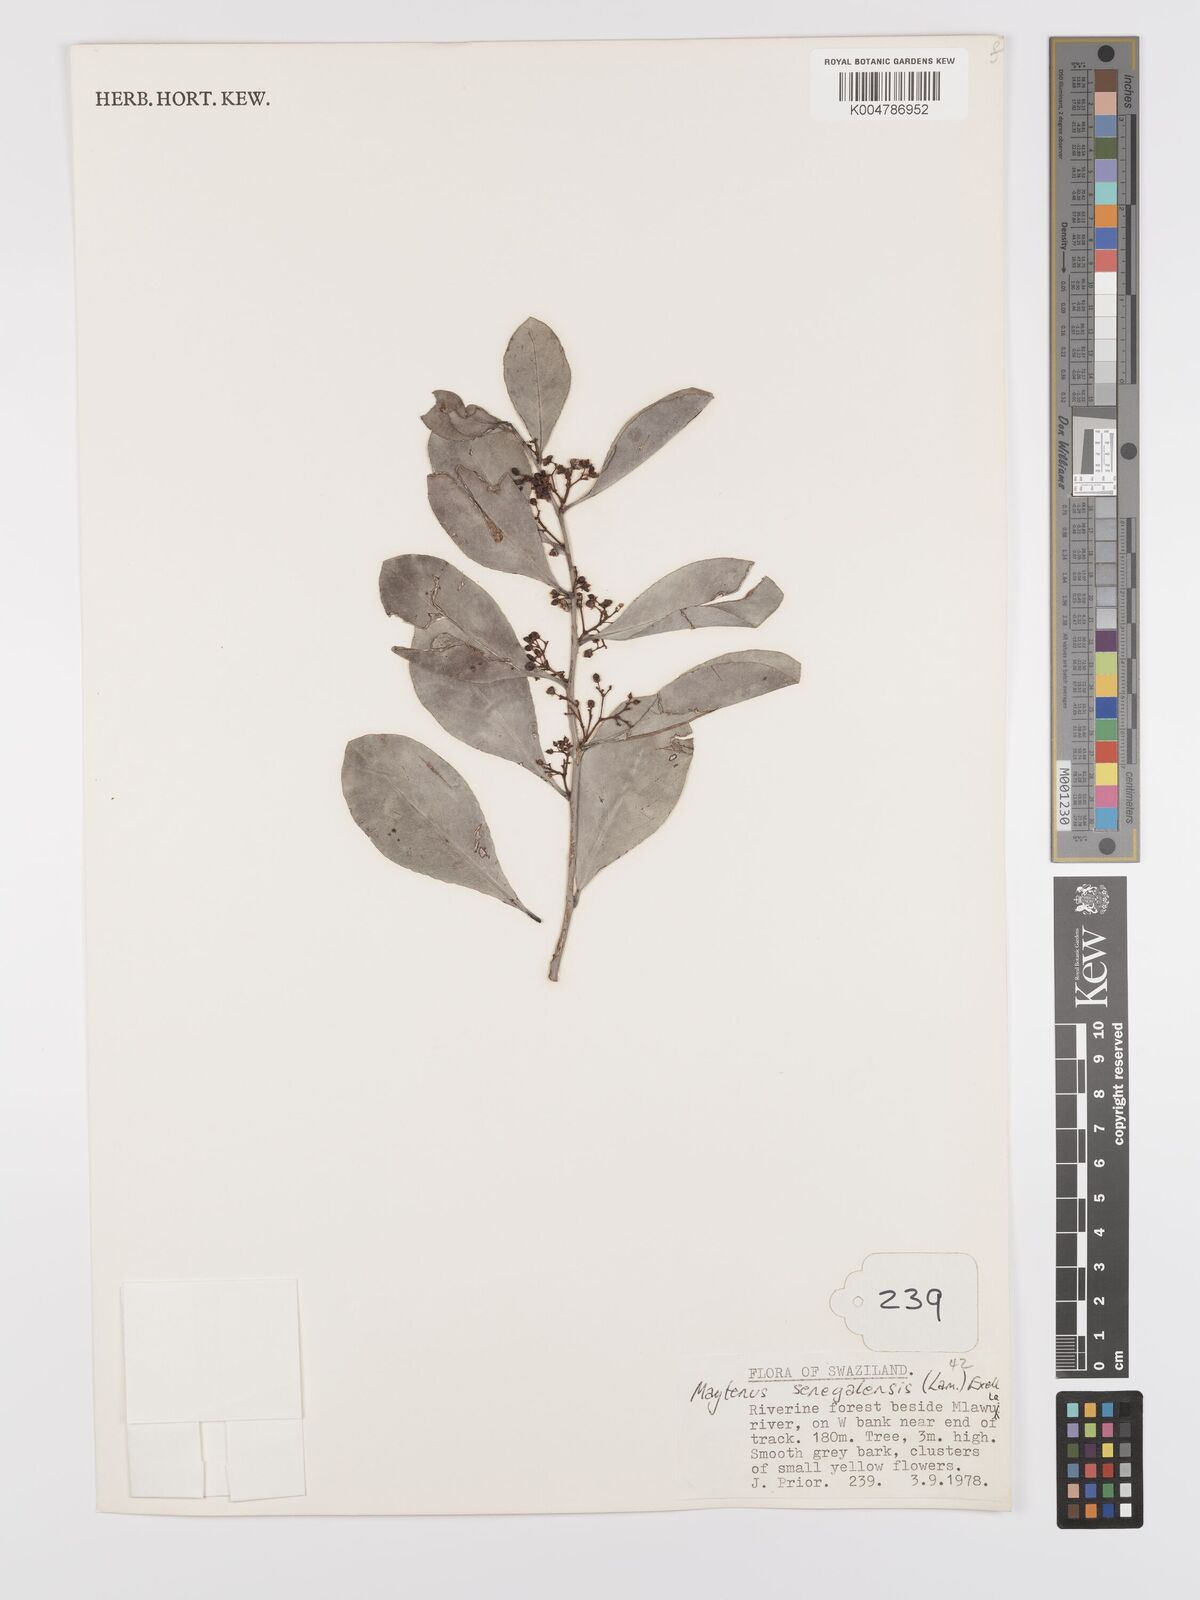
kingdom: Plantae
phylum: Tracheophyta
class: Magnoliopsida
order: Celastrales
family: Celastraceae
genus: Gymnosporia
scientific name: Gymnosporia senegalensis
